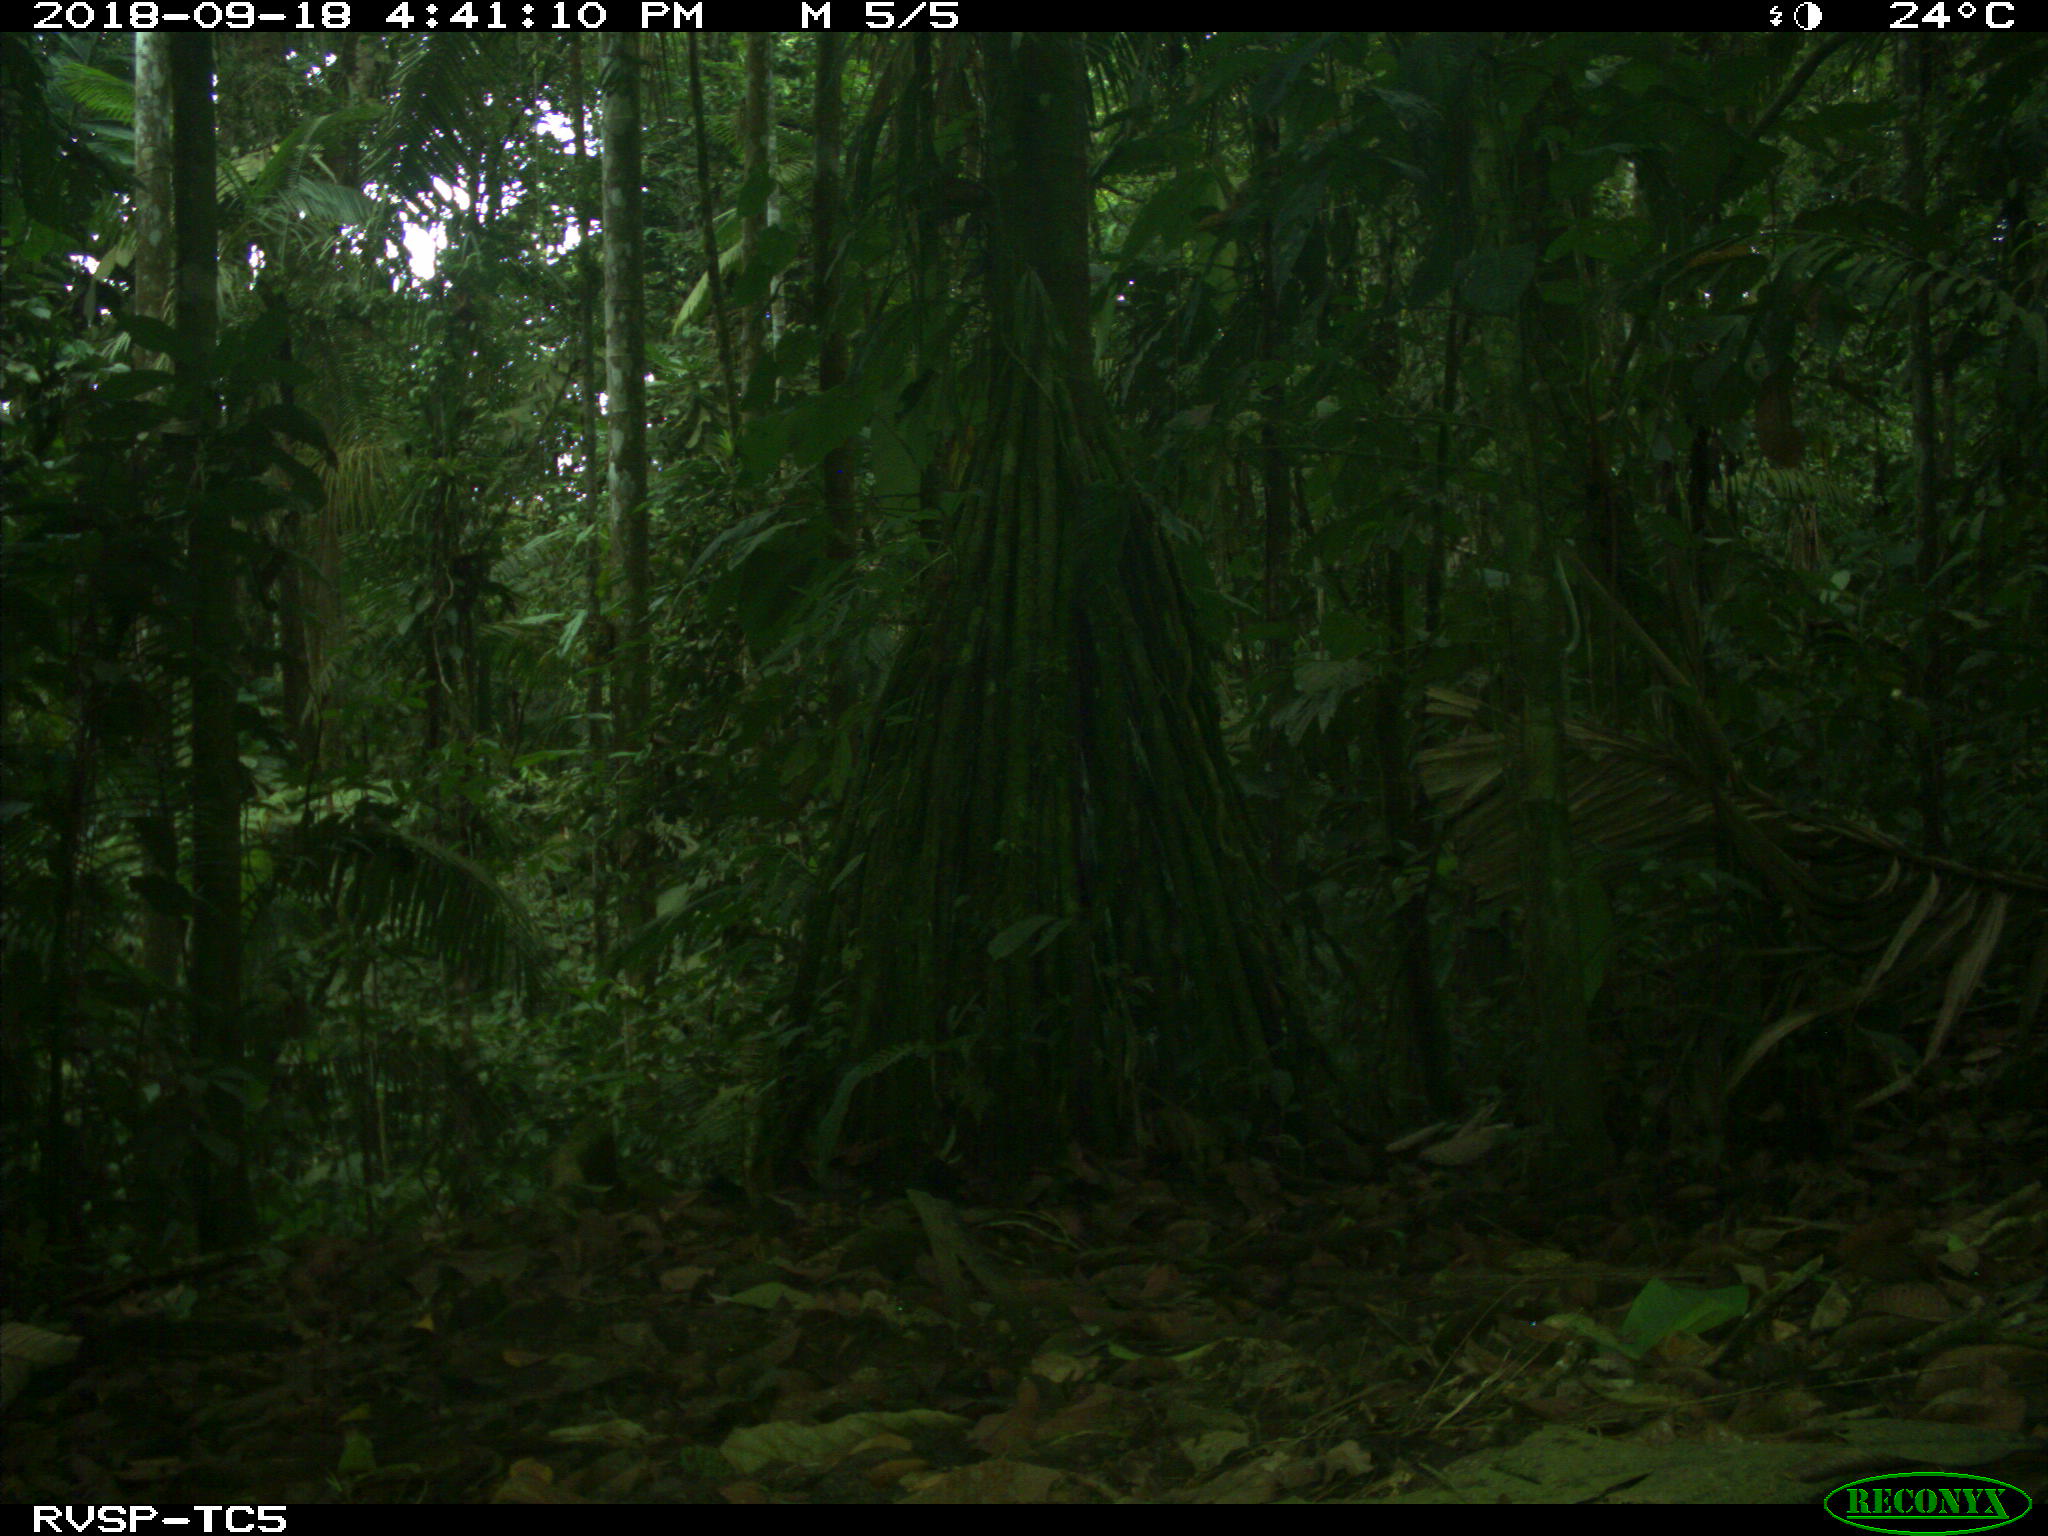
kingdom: Animalia
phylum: Chordata
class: Mammalia
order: Carnivora
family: Mustelidae
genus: Eira
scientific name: Eira barbara
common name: Tayra
